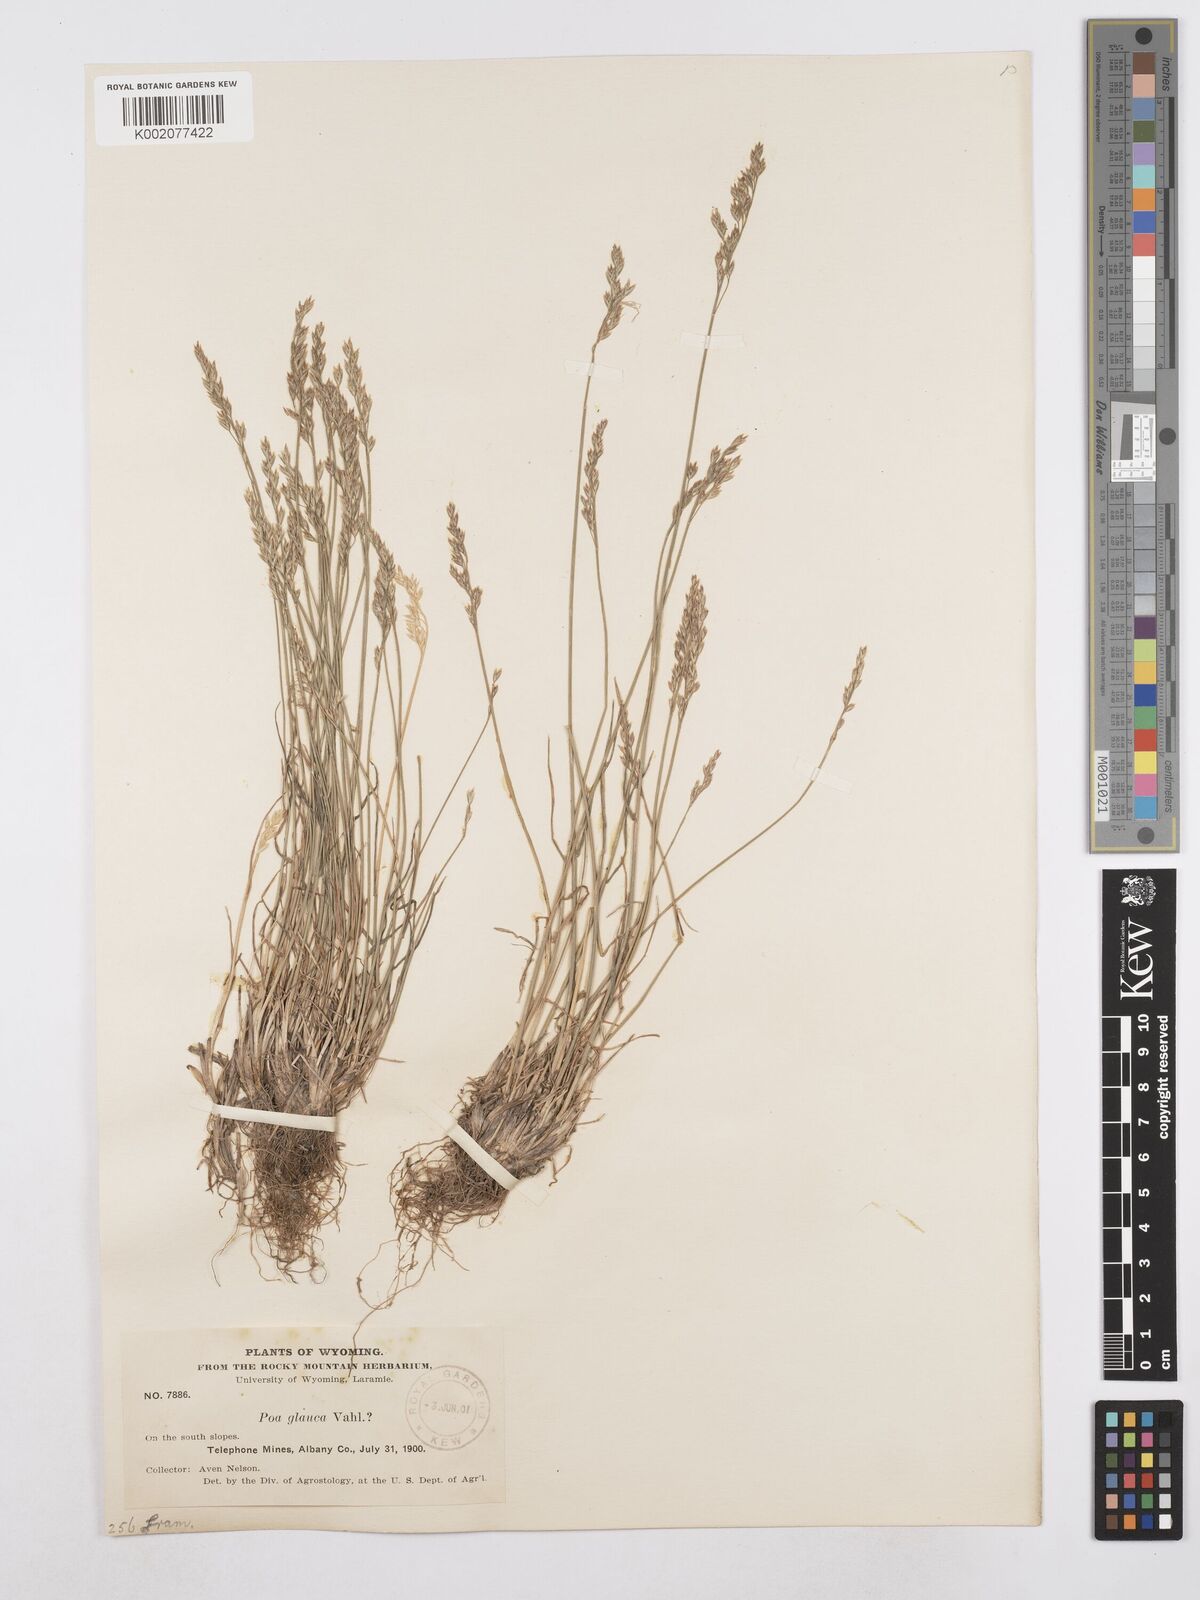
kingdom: Plantae
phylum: Tracheophyta
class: Liliopsida
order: Poales
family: Poaceae
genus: Poa
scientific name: Poa glauca
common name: Glaucous bluegrass
